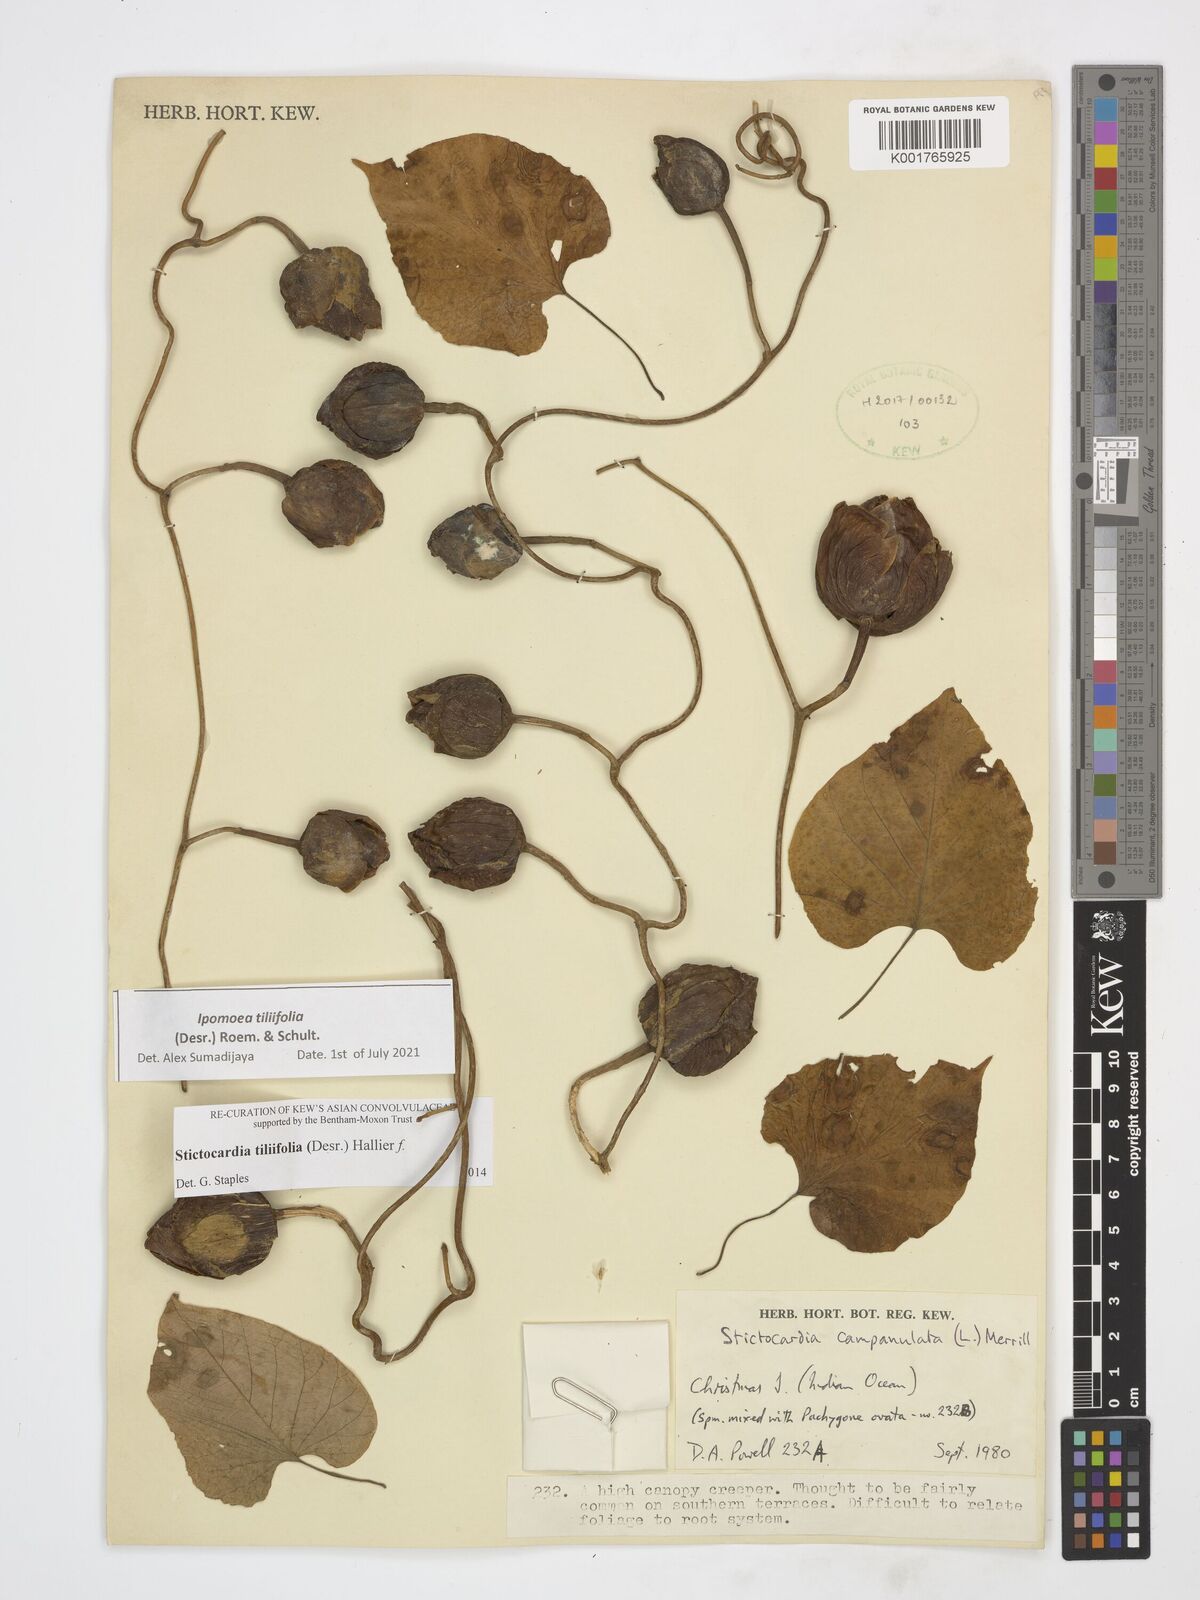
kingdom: Plantae
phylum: Tracheophyta
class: Magnoliopsida
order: Solanales
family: Convolvulaceae
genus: Stictocardia
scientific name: Stictocardia tiliifolia
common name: Spottedheart
